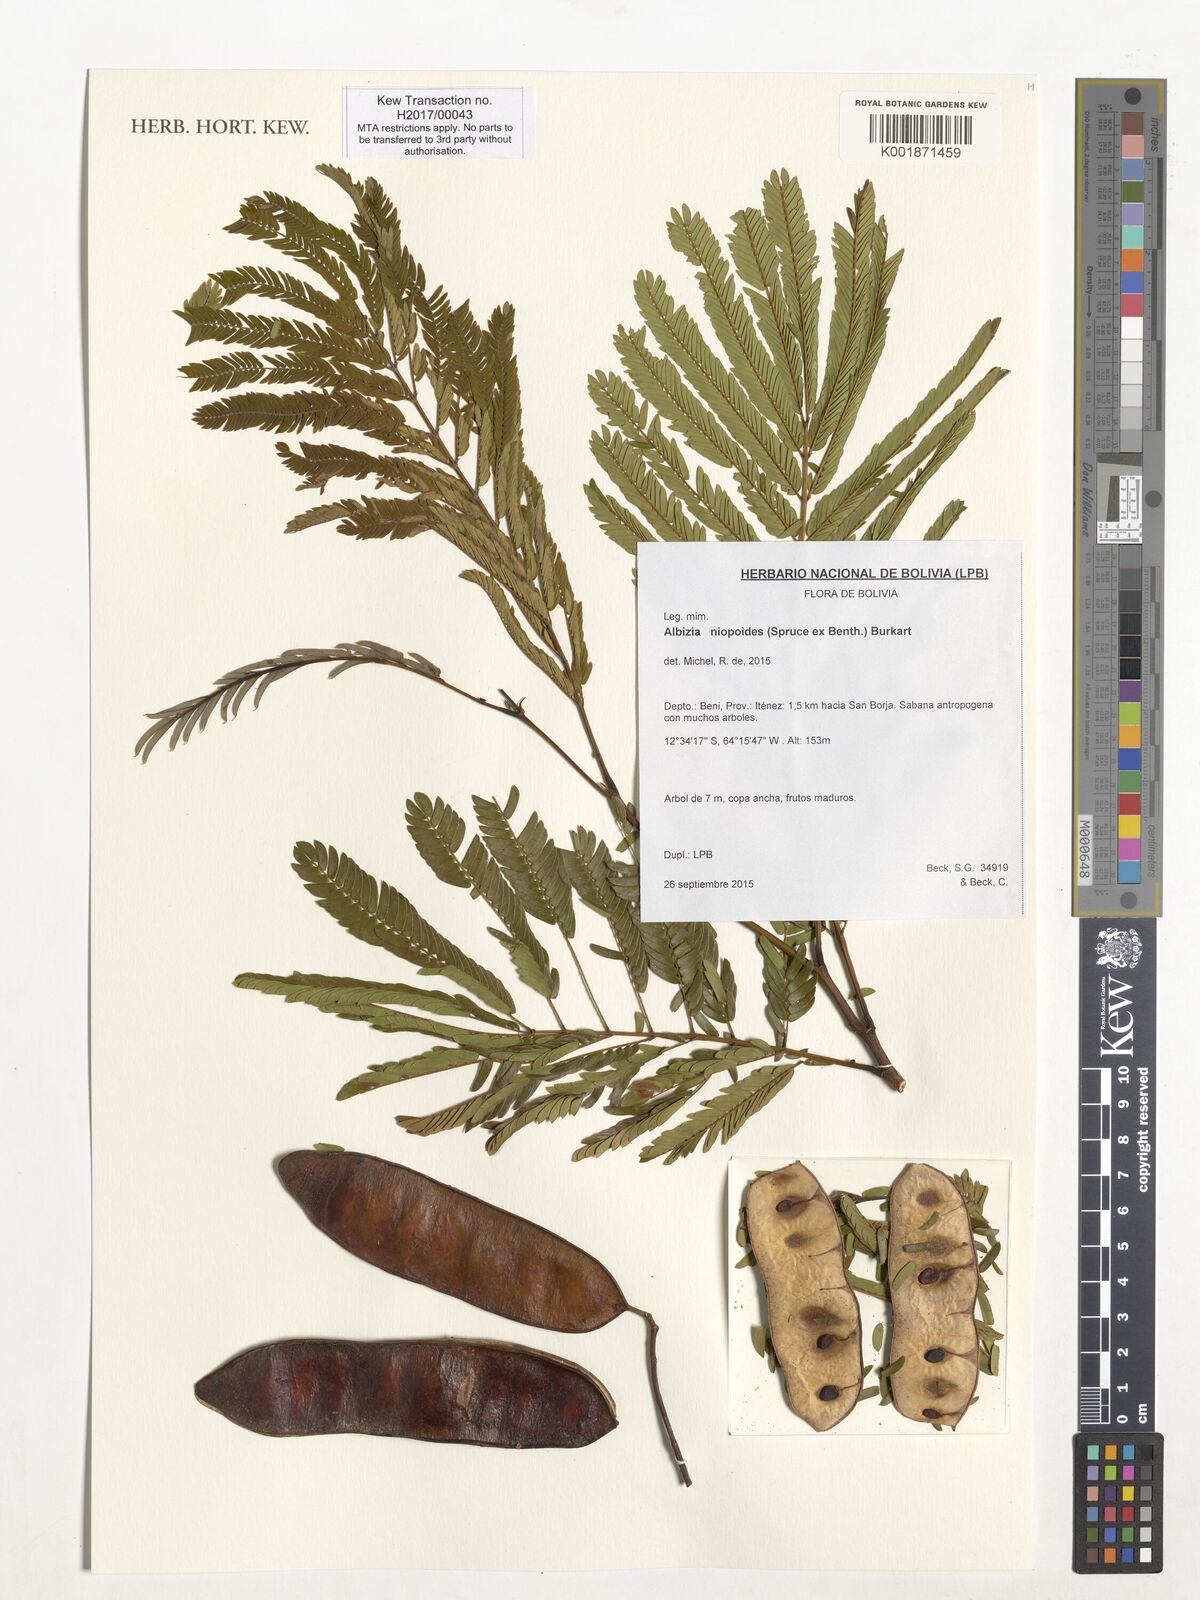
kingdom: Plantae
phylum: Tracheophyta
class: Magnoliopsida
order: Fabales
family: Fabaceae
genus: Albizia
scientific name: Albizia niopoides
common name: Silk tree
